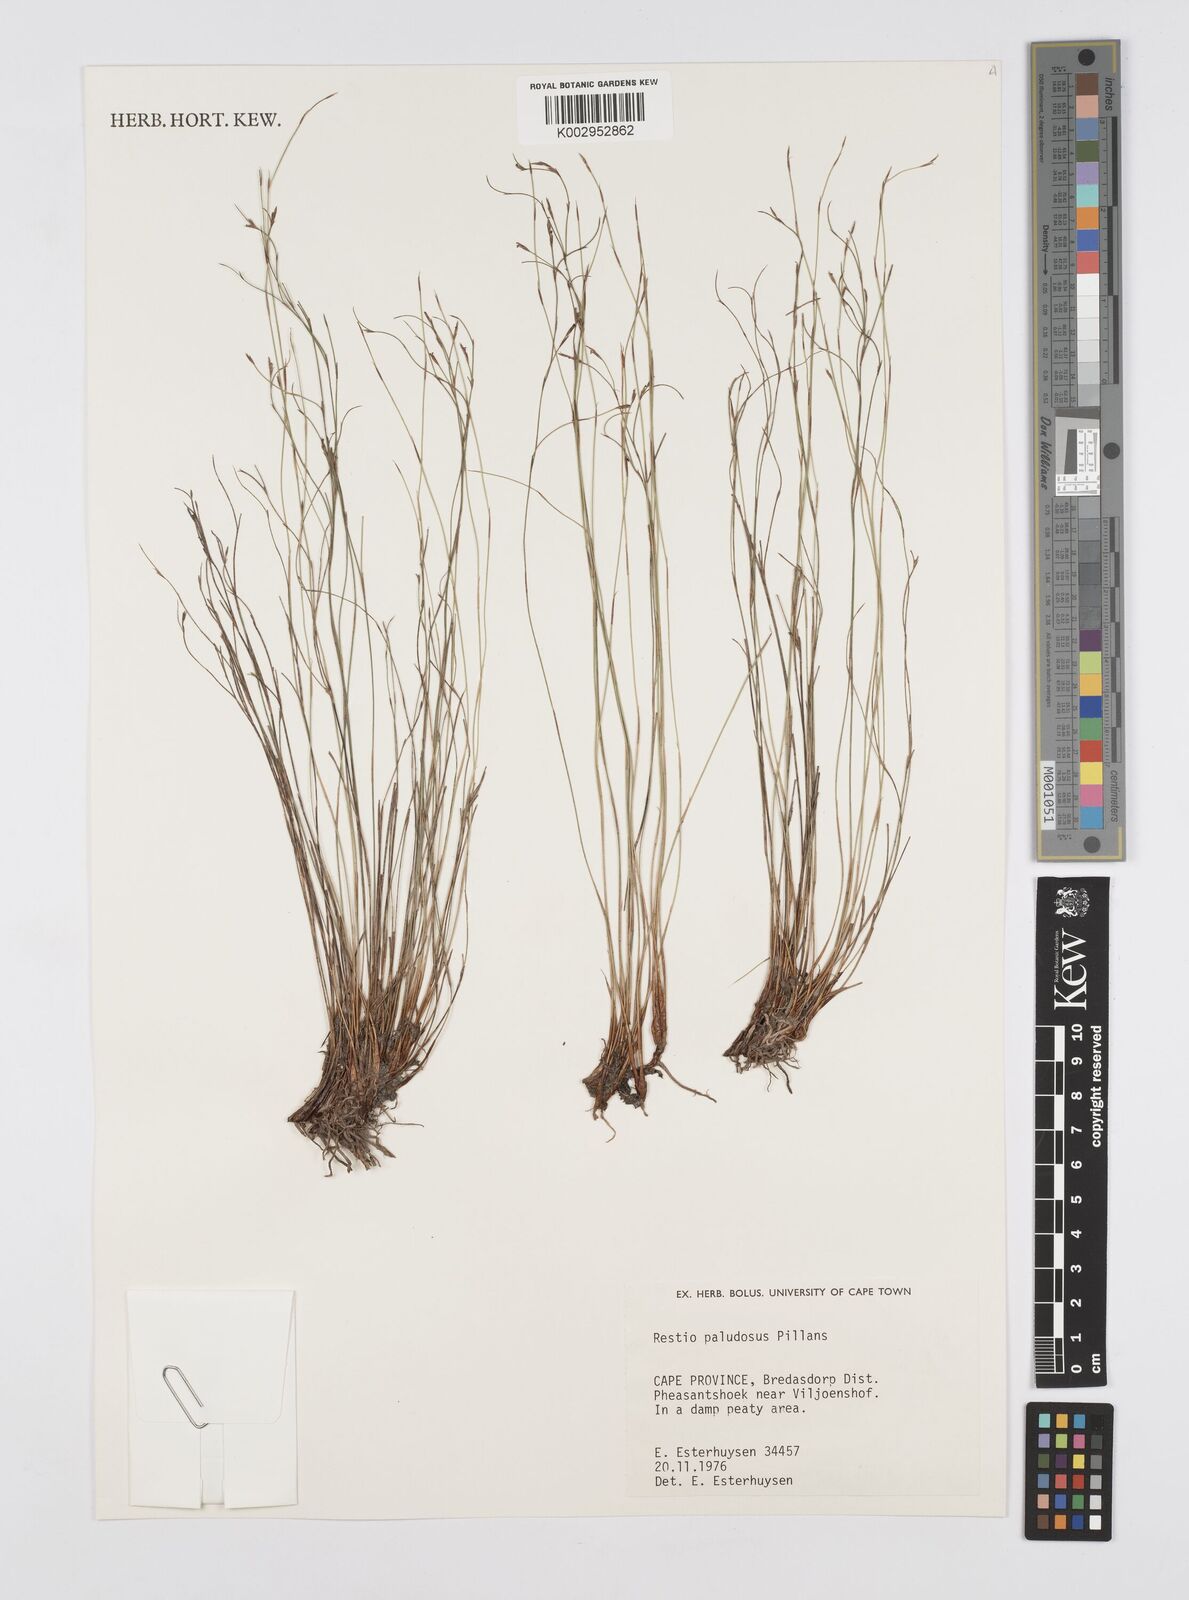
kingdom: Plantae
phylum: Tracheophyta
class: Liliopsida
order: Poales
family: Restionaceae
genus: Restio
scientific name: Restio paludosus
